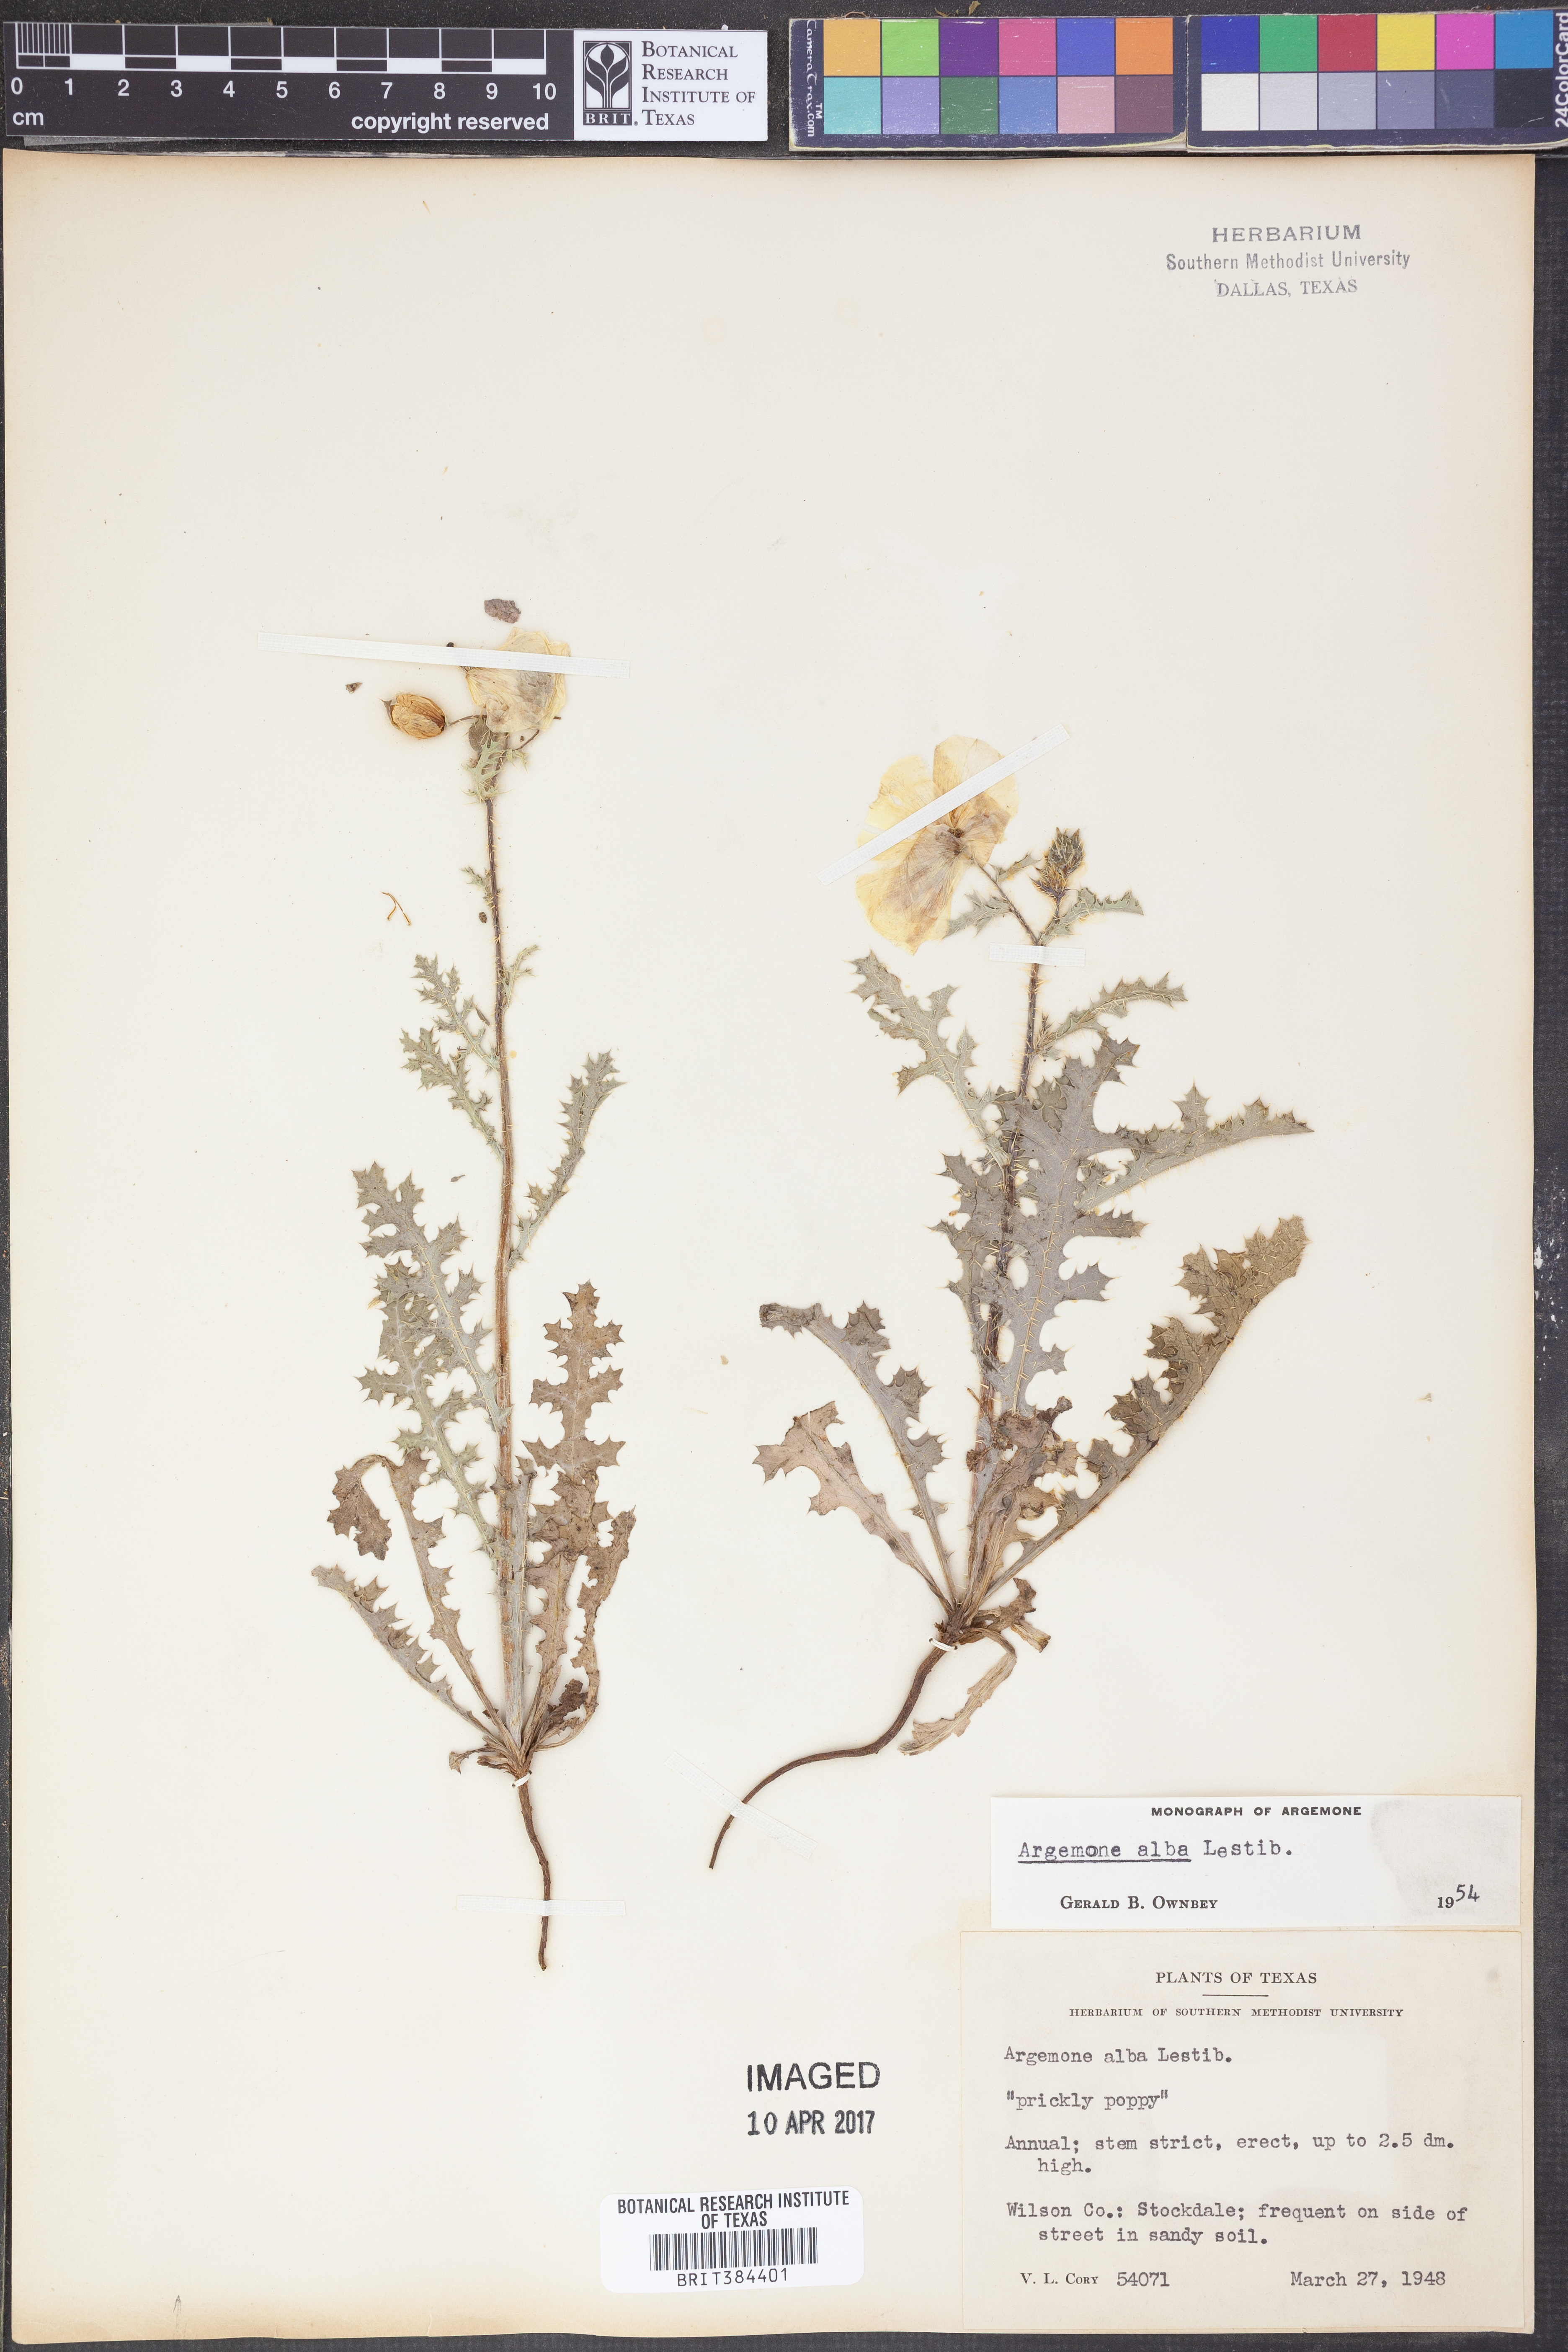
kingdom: Plantae
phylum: Tracheophyta
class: Magnoliopsida
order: Ranunculales
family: Papaveraceae
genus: Argemone
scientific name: Argemone albiflora
